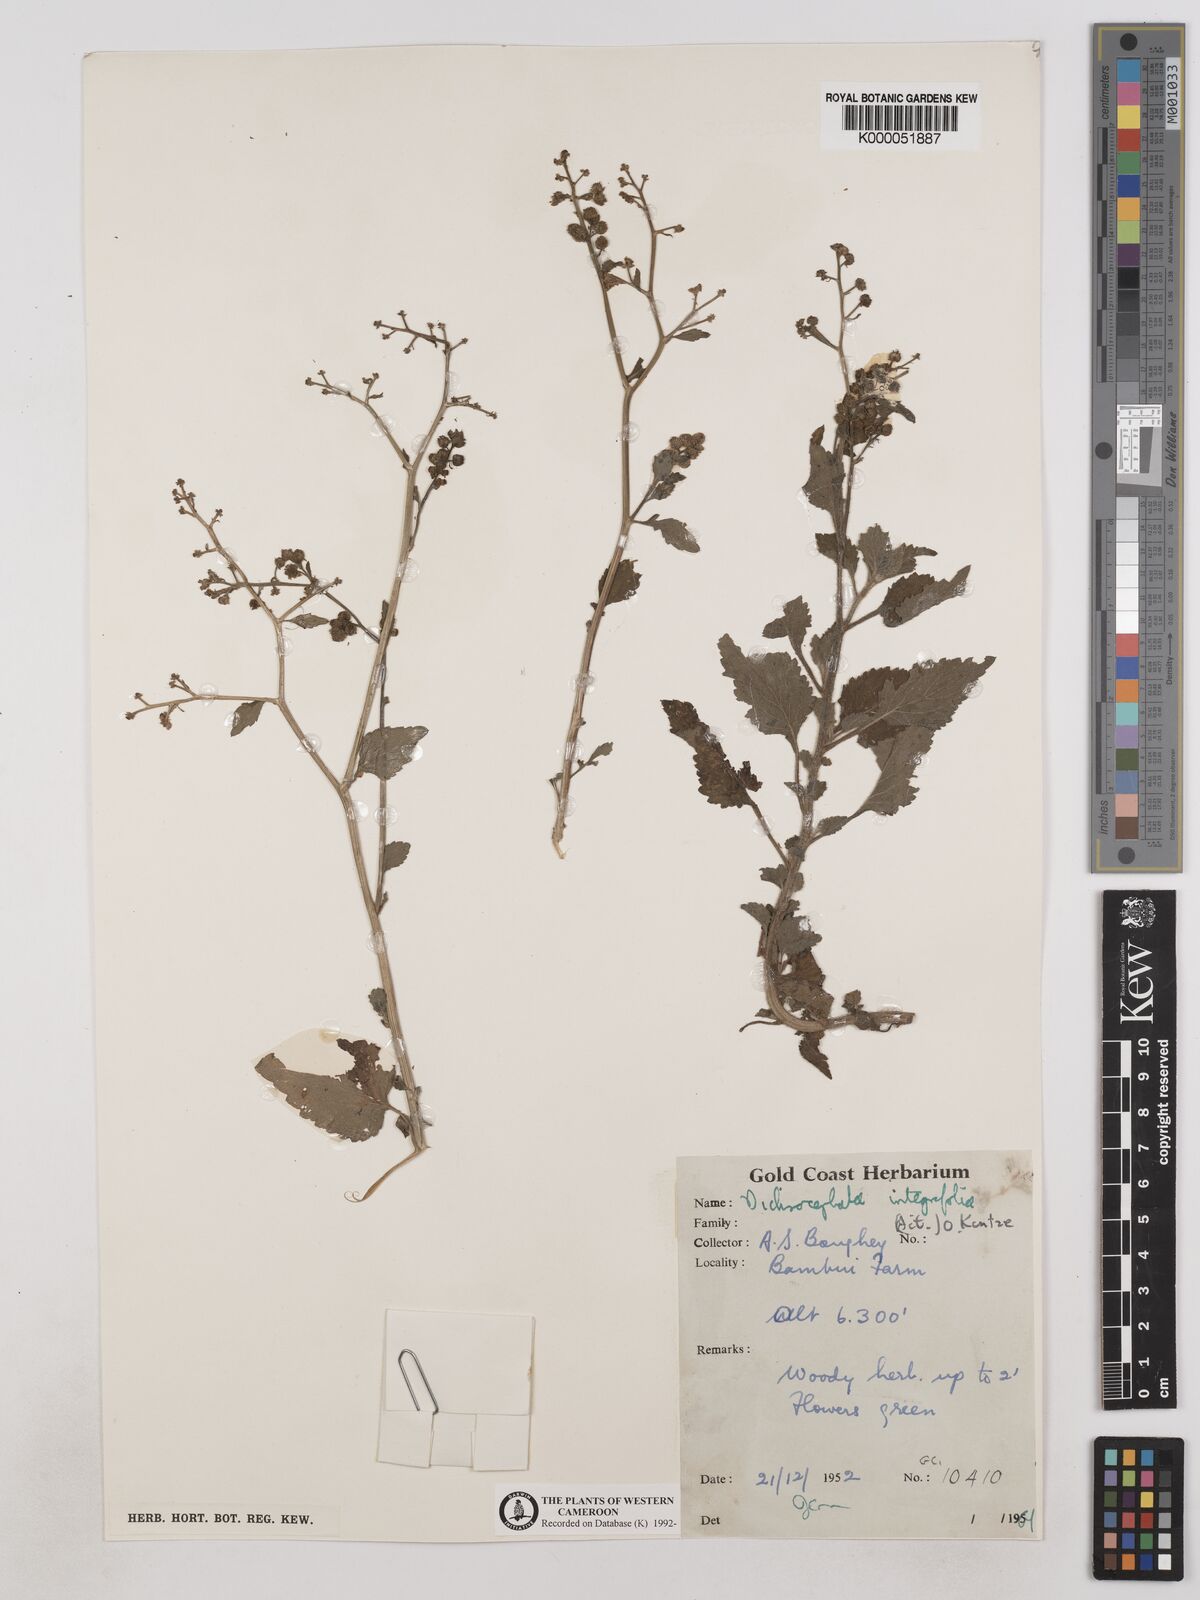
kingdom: Plantae
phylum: Tracheophyta
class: Magnoliopsida
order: Asterales
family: Asteraceae
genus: Dichrocephala
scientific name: Dichrocephala integrifolia
